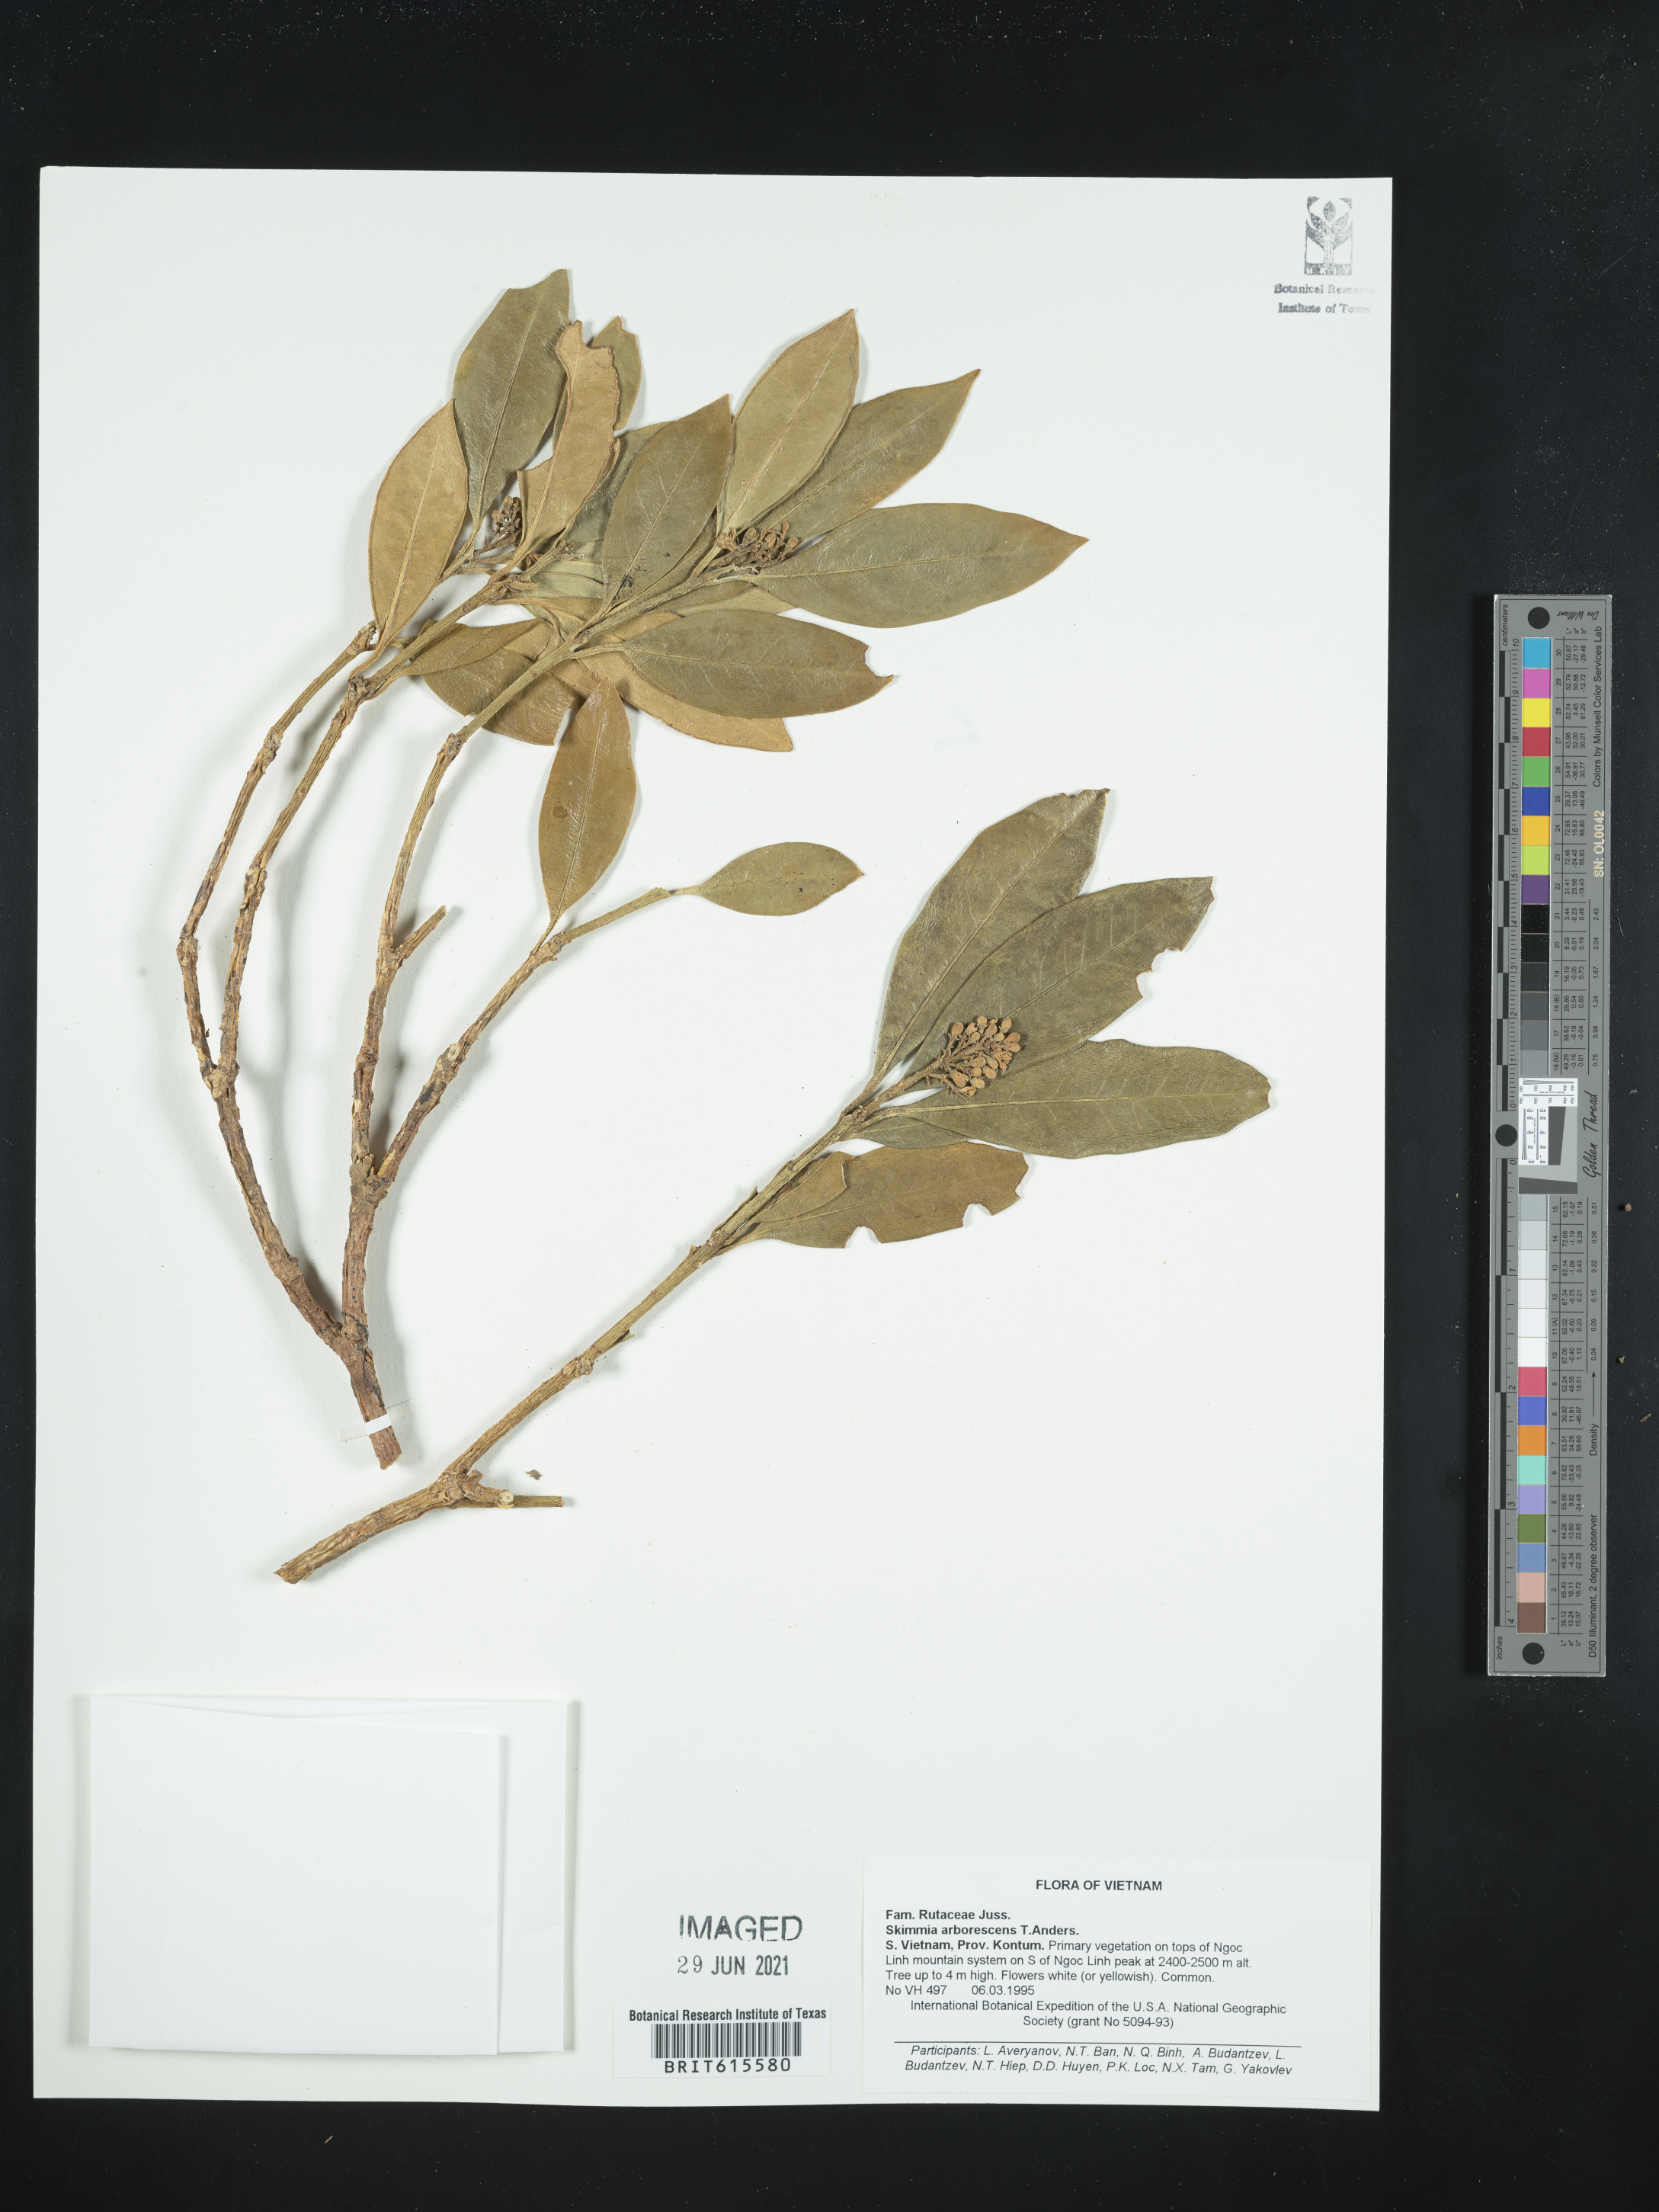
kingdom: Plantae
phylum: Tracheophyta
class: Magnoliopsida
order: Sapindales
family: Rutaceae
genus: Skimmia
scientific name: Skimmia arborescens
